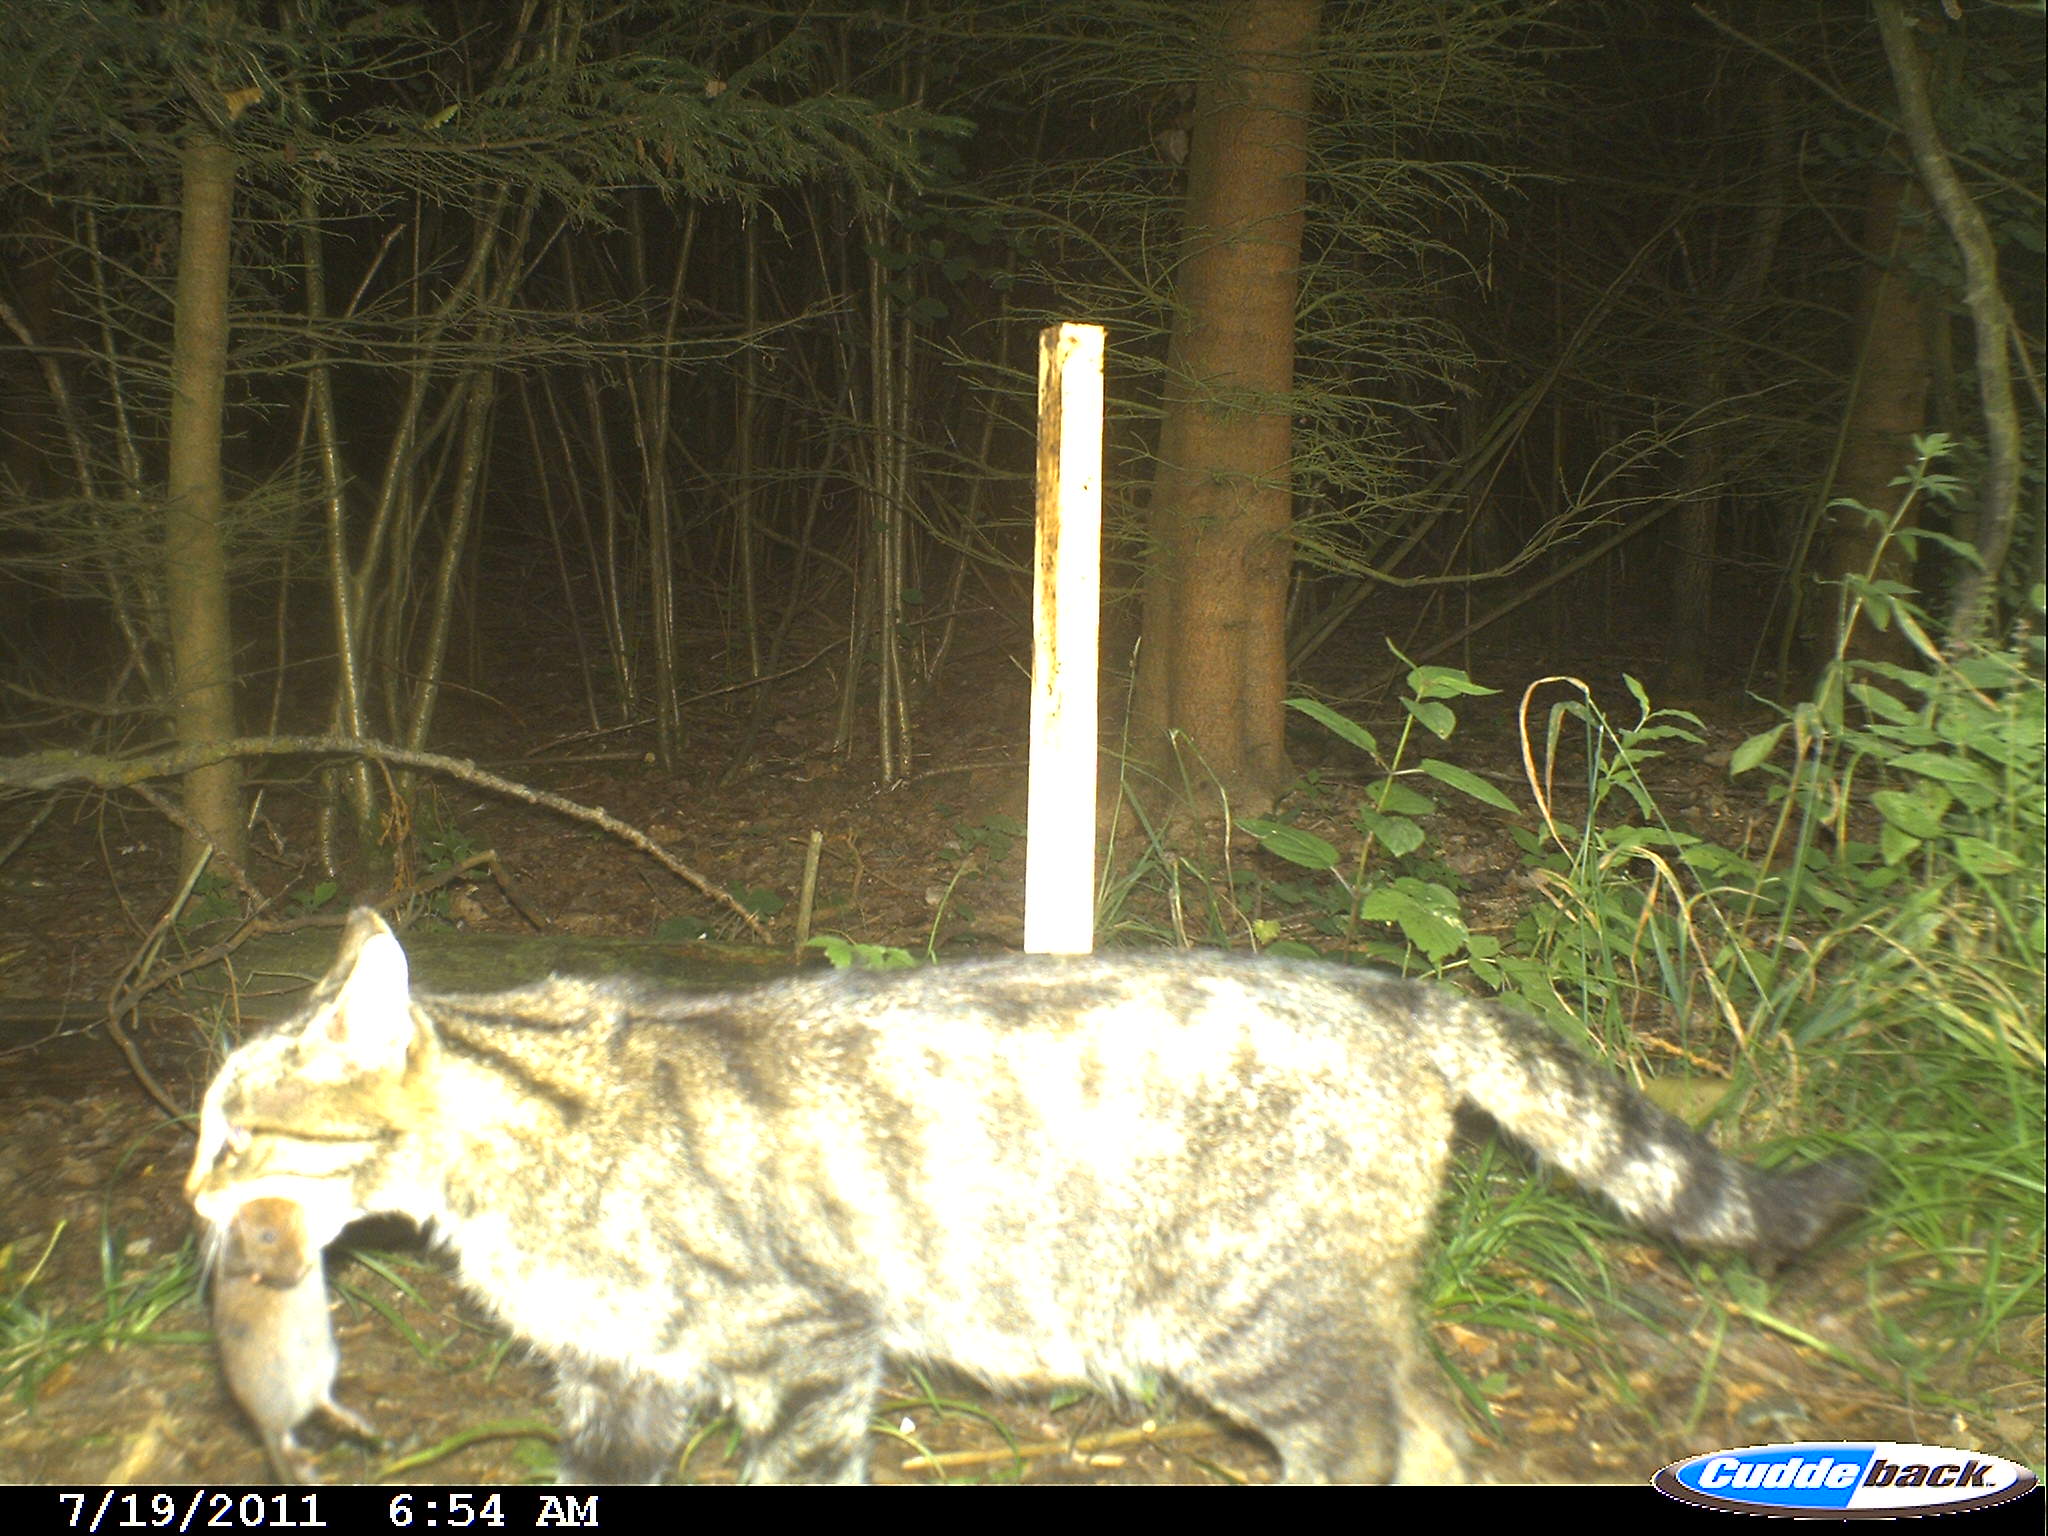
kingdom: Animalia
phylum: Chordata
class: Mammalia
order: Carnivora
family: Felidae
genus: Felis
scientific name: Felis silvestris
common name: Wildcat
